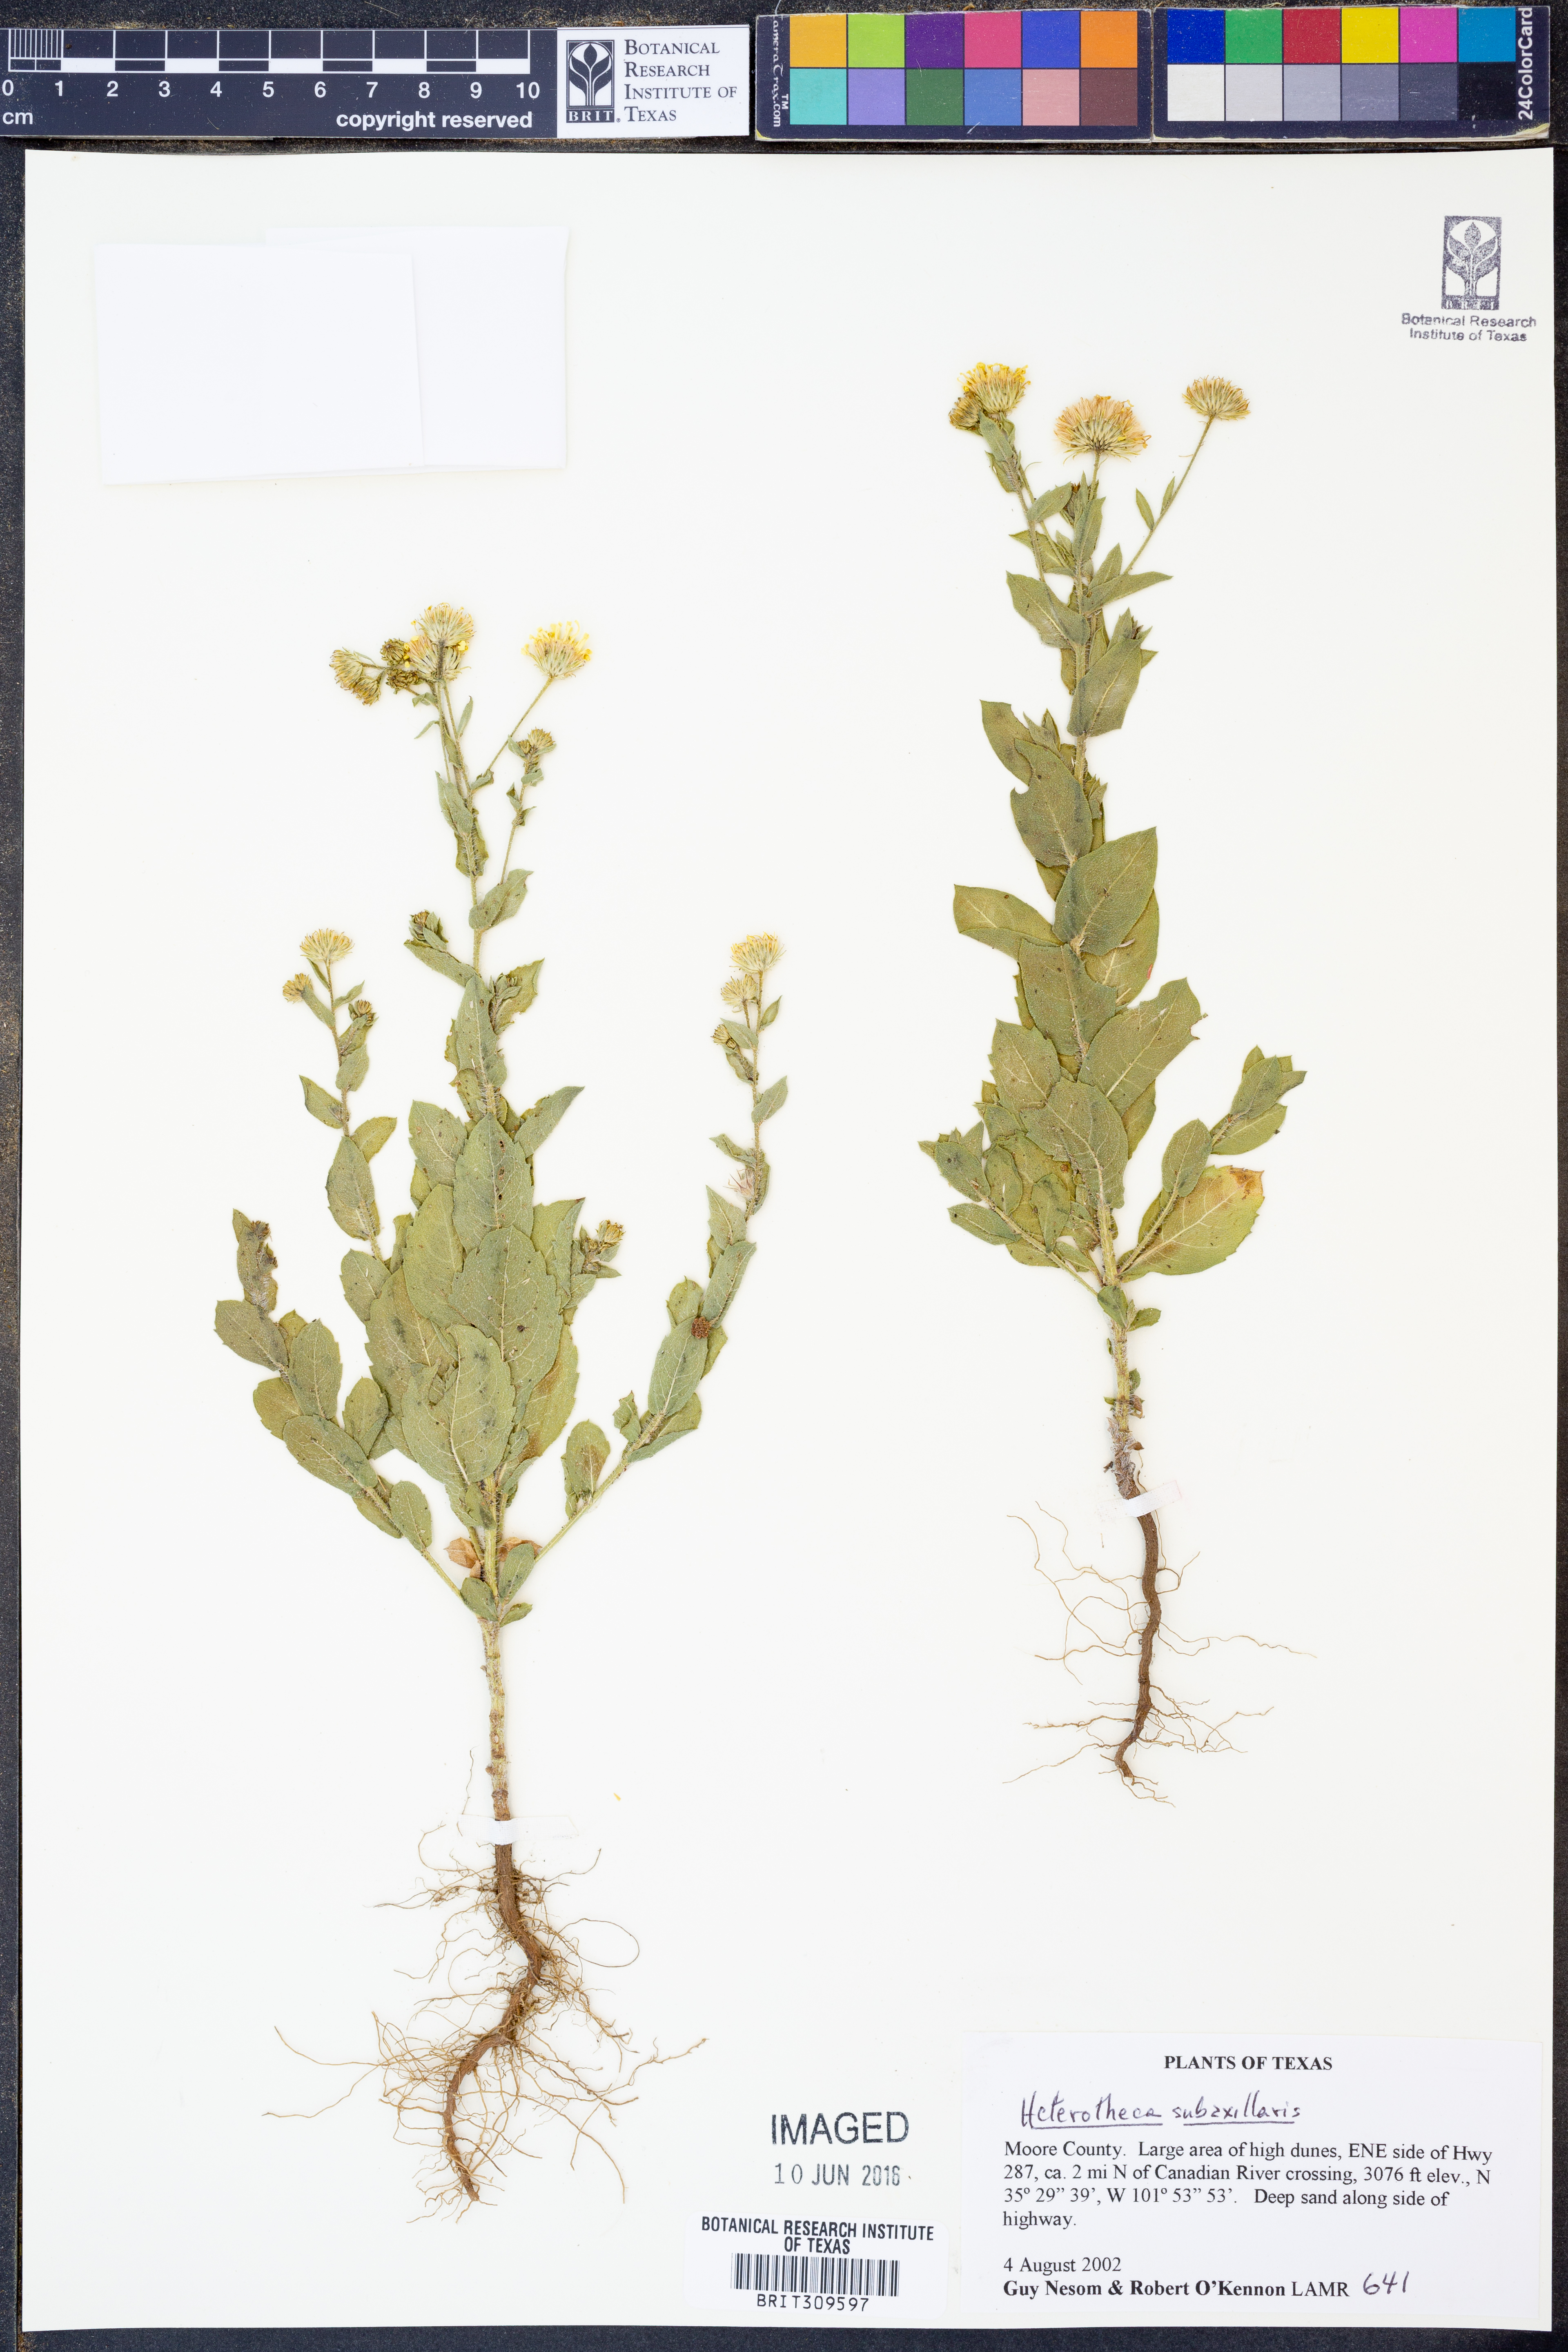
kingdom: Plantae
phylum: Tracheophyta
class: Magnoliopsida
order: Asterales
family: Asteraceae
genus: Heterotheca
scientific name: Heterotheca subaxillaris
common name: Camphorweed
